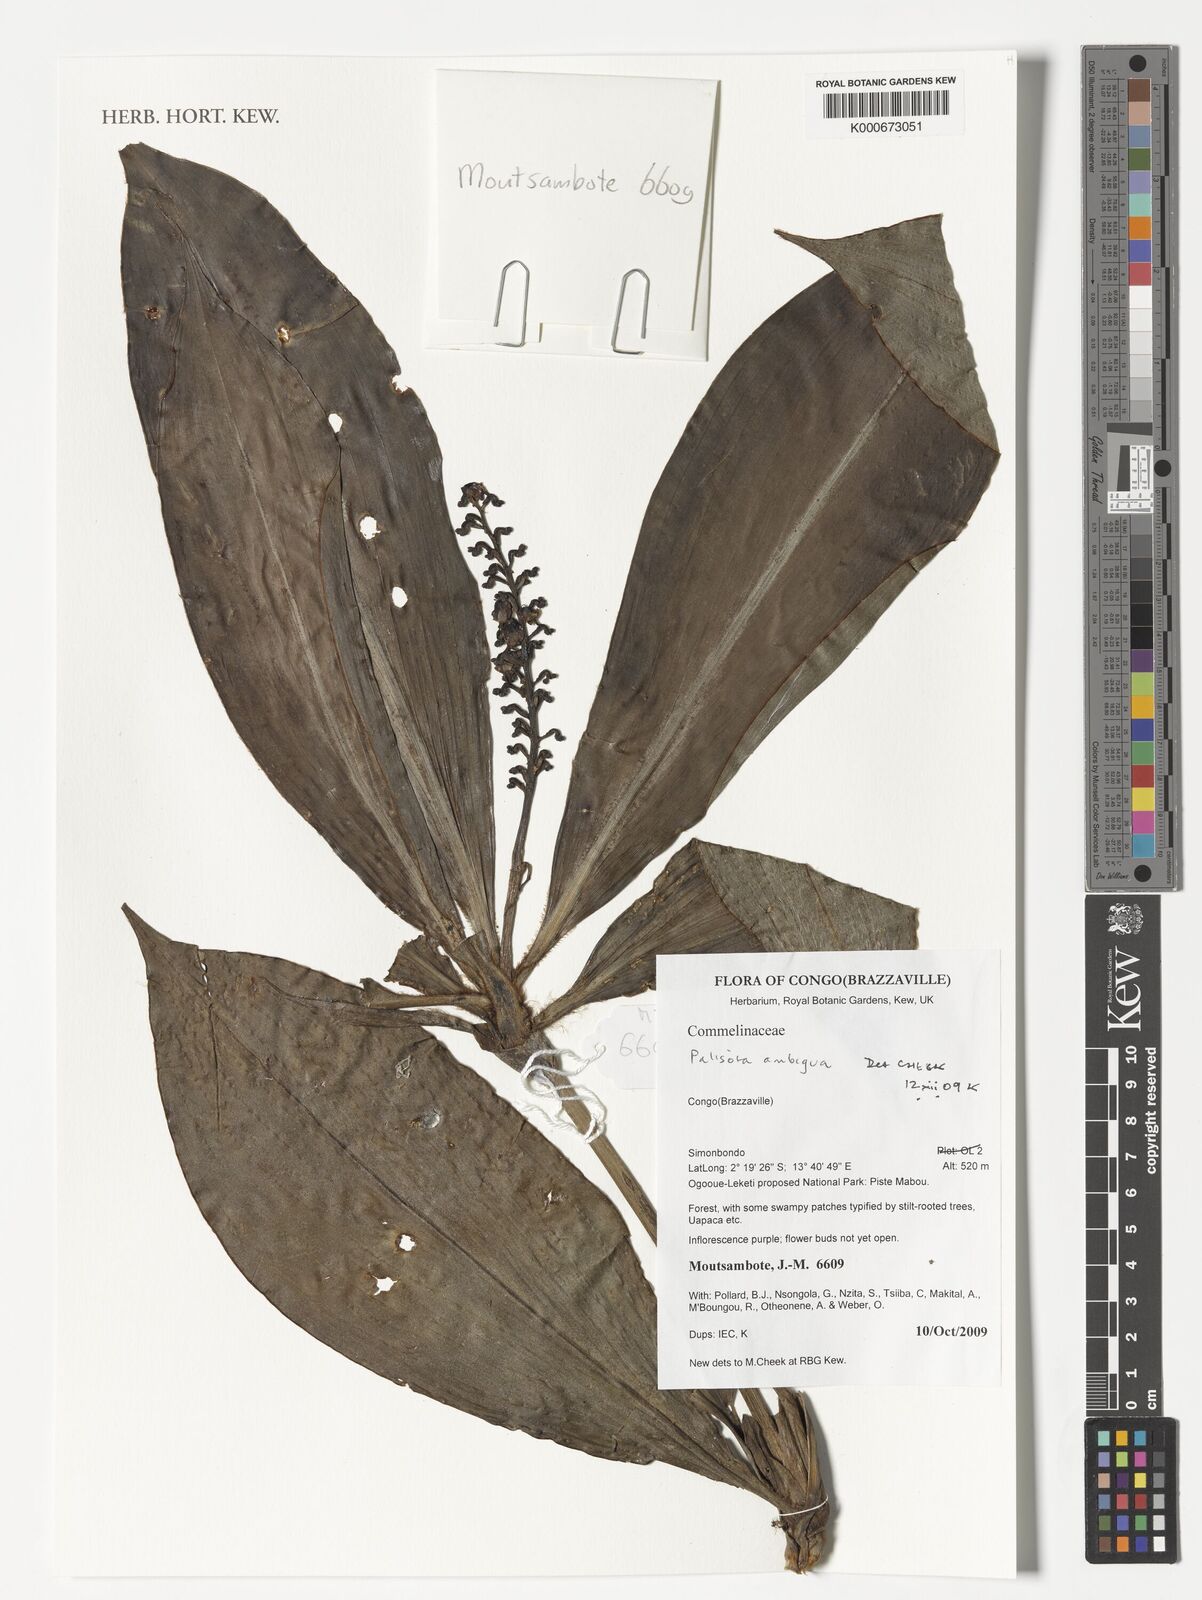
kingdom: Plantae
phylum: Tracheophyta
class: Liliopsida
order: Commelinales
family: Commelinaceae
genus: Palisota
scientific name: Palisota ambigua
